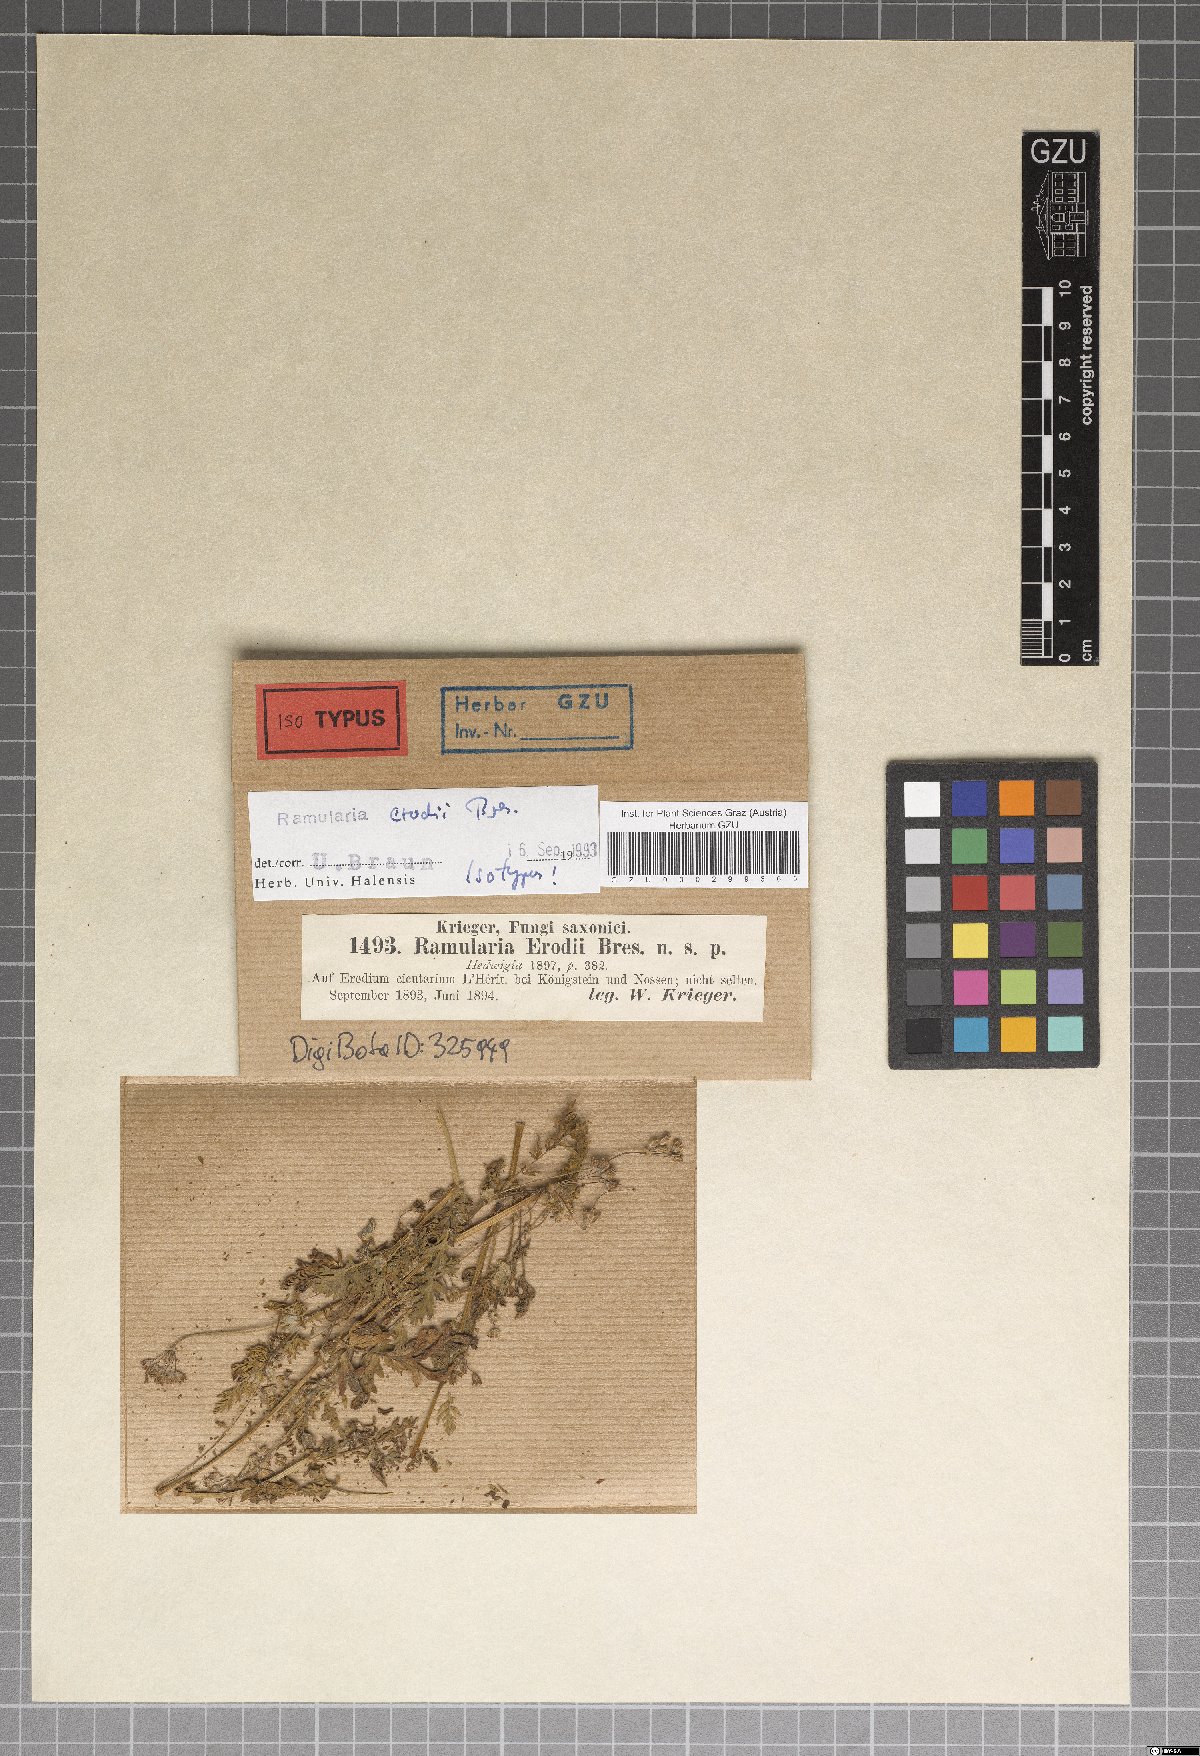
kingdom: Fungi
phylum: Ascomycota
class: Dothideomycetes
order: Mycosphaerellales
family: Mycosphaerellaceae
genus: Ramularia
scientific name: Ramularia erodii
